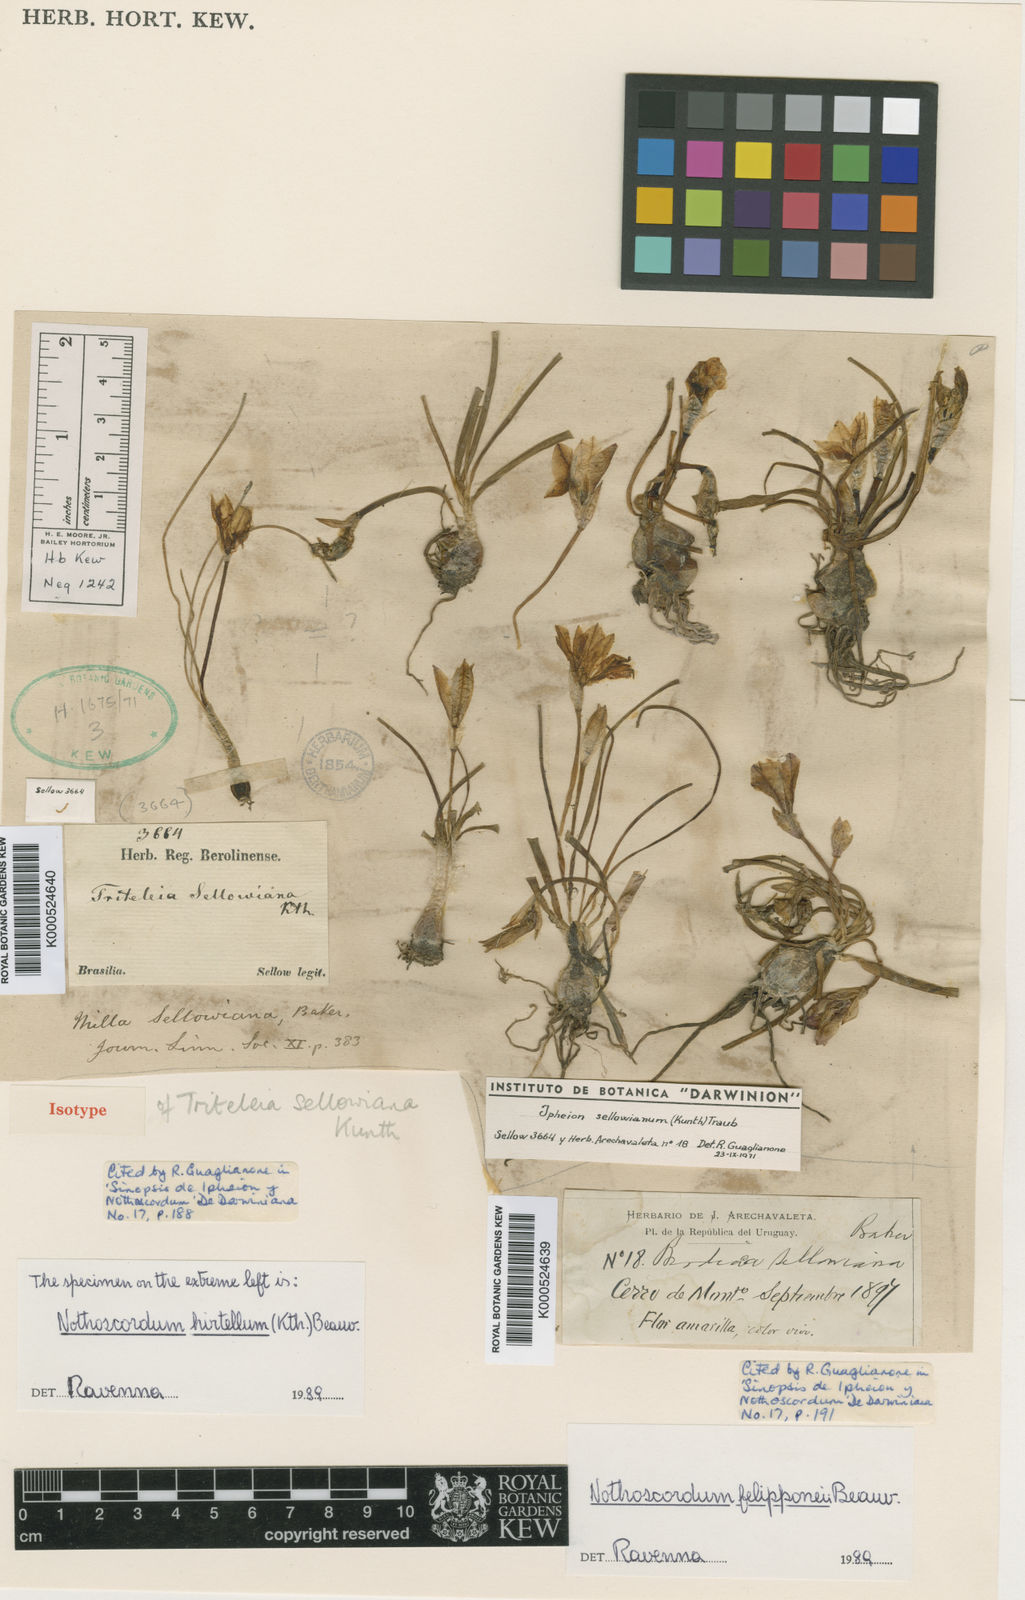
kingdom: Plantae
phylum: Tracheophyta
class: Liliopsida
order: Asparagales
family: Amaryllidaceae
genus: Nothoscordum
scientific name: Nothoscordum felipponei
